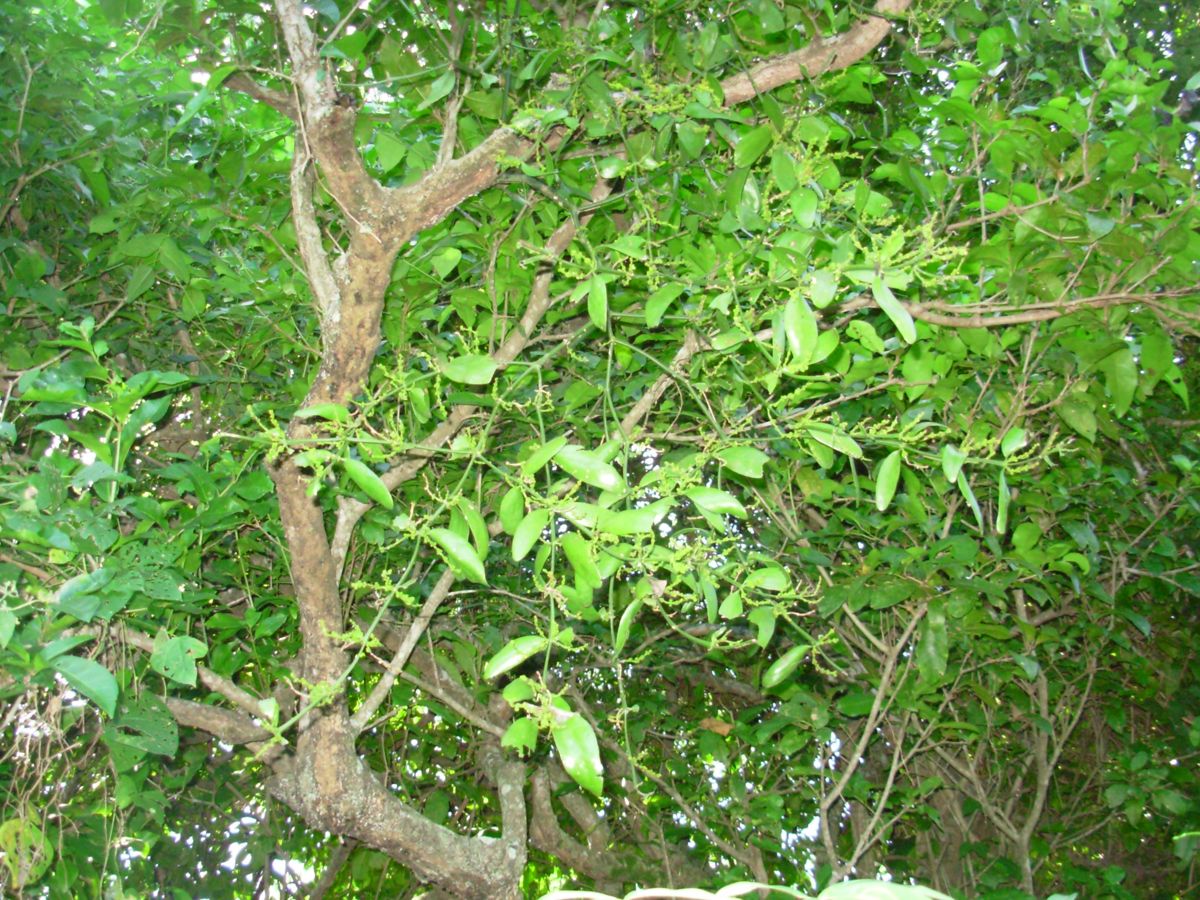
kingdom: Plantae
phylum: Tracheophyta
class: Magnoliopsida
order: Santalales
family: Loranthaceae
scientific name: Loranthaceae
